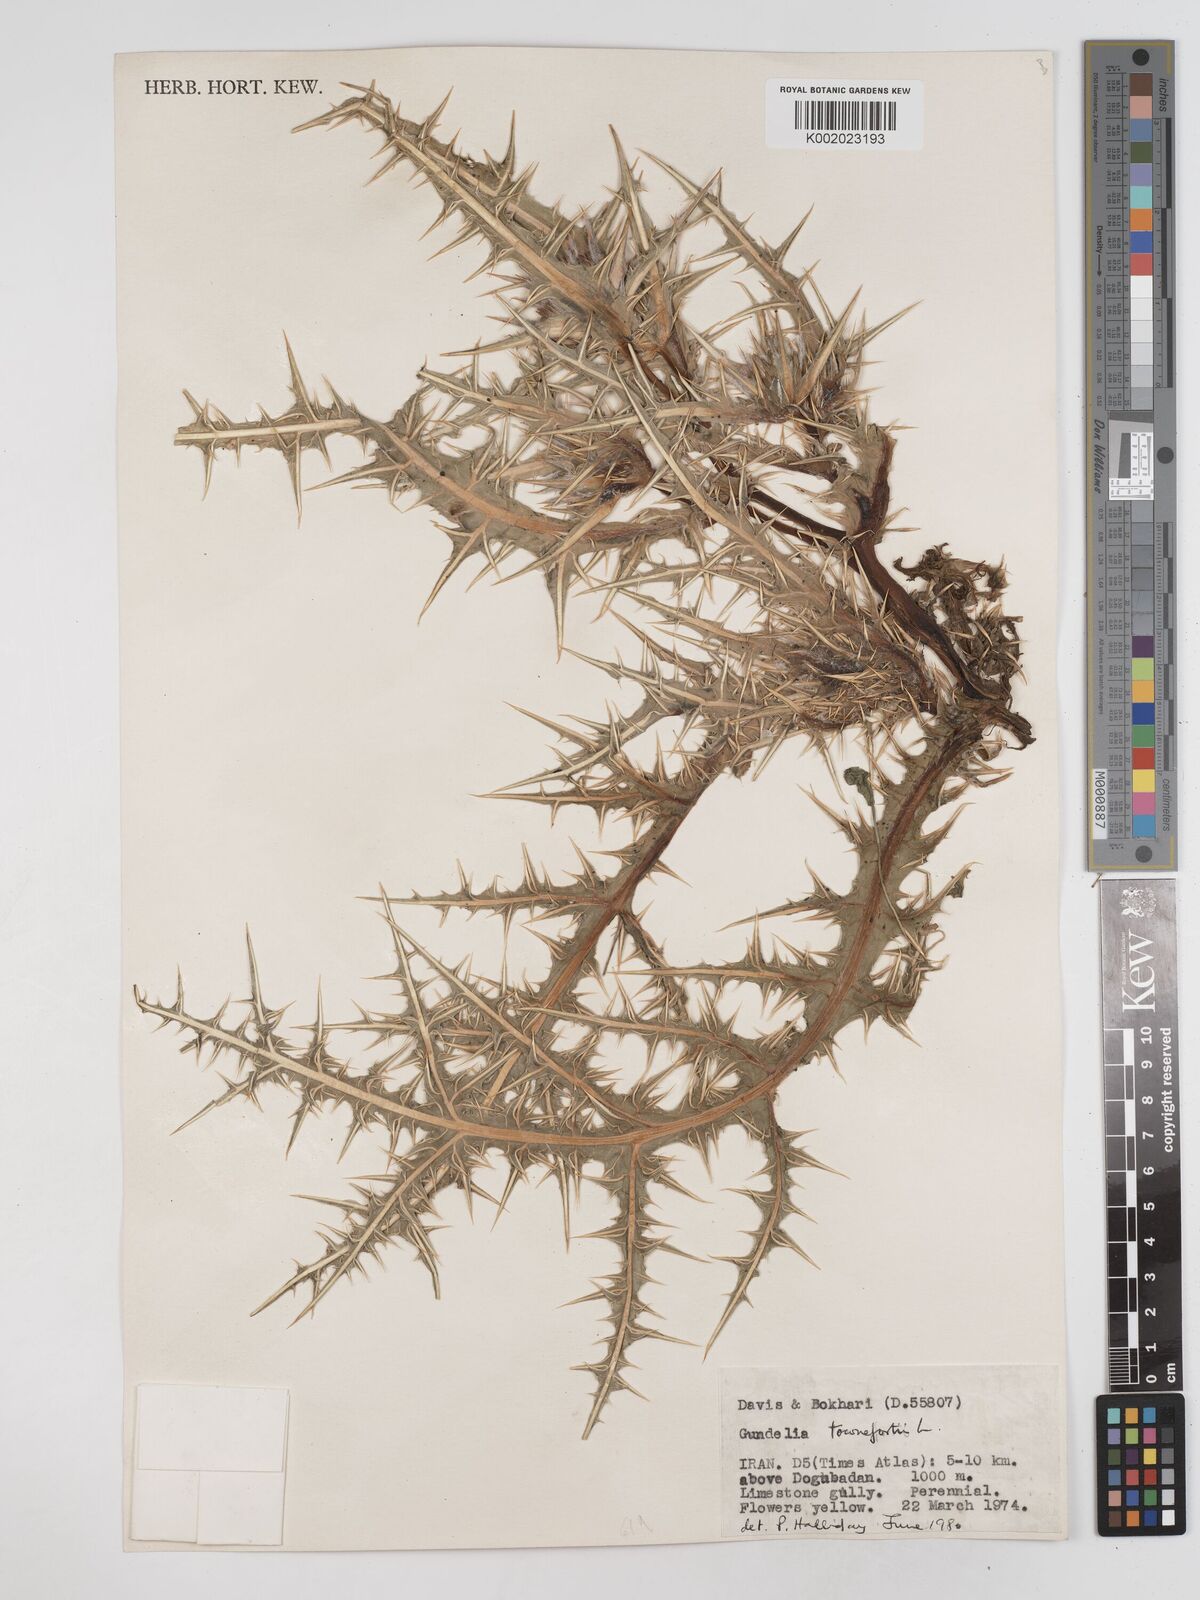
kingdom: Plantae
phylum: Tracheophyta
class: Magnoliopsida
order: Asterales
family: Asteraceae
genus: Gundelia
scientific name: Gundelia tournefortii
